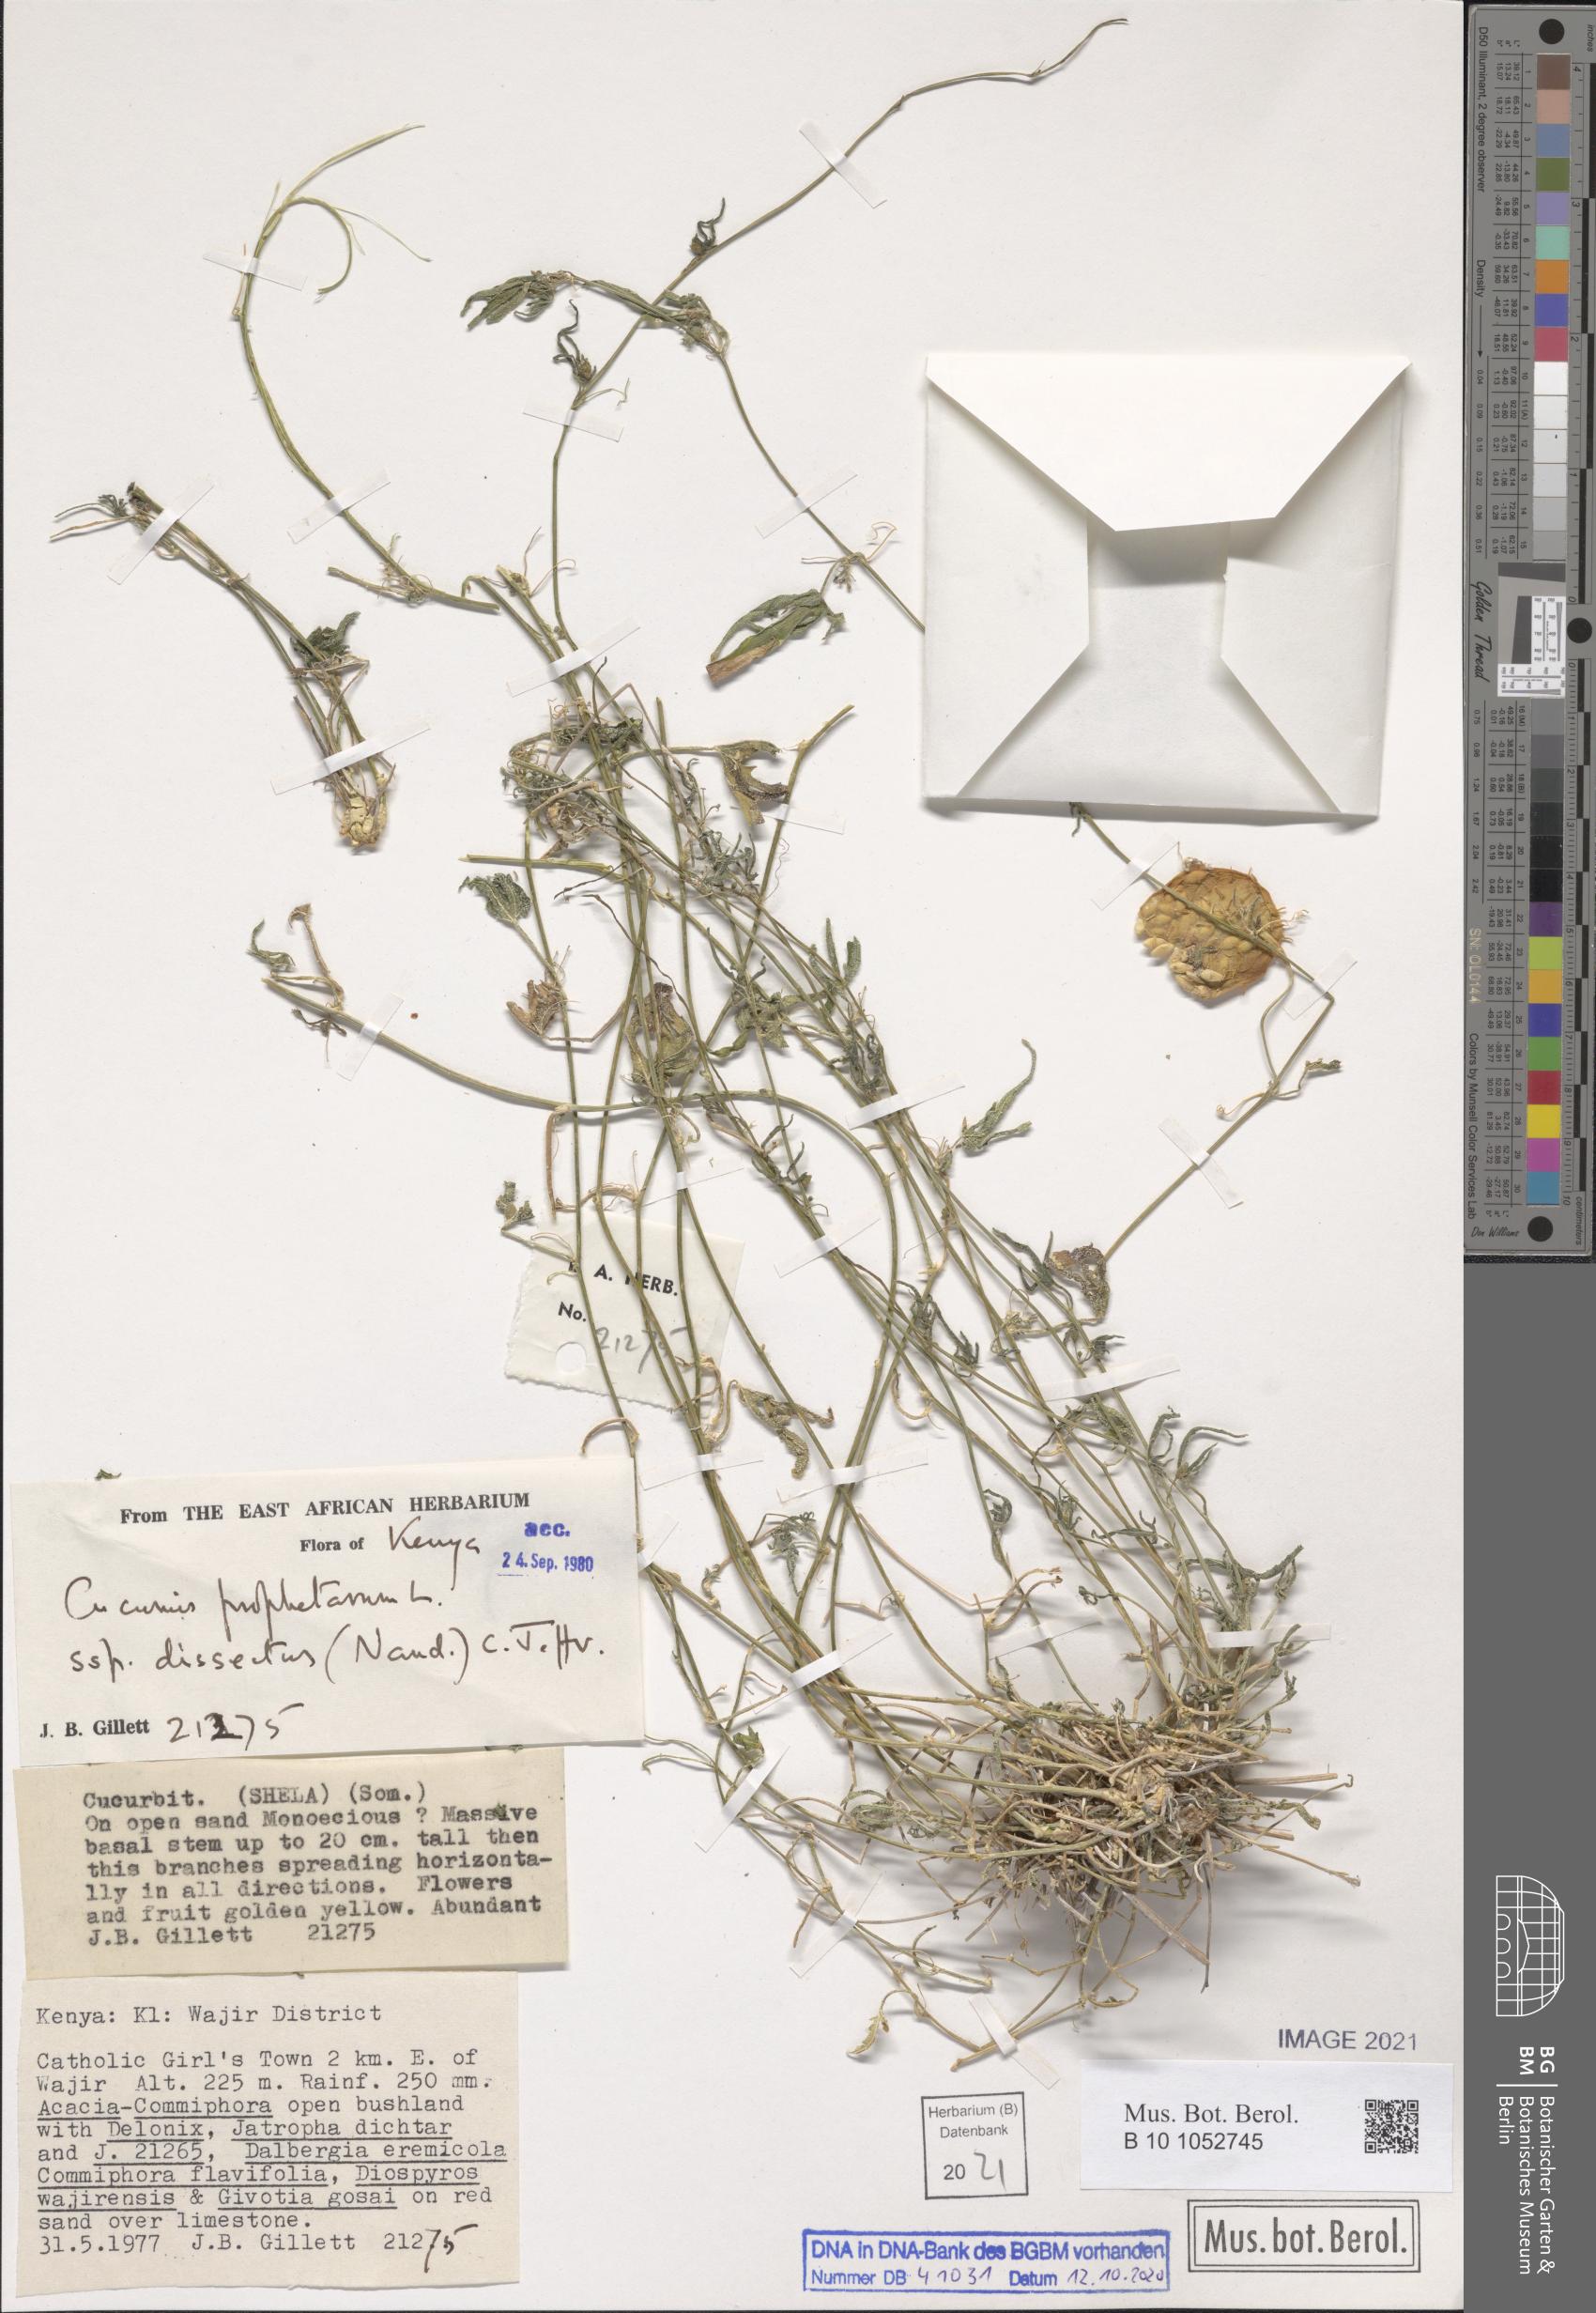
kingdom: Plantae
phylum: Tracheophyta
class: Magnoliopsida
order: Cucurbitales
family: Cucurbitaceae
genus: Cucumis
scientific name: Cucumis prophetarum
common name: Wild cucumber
